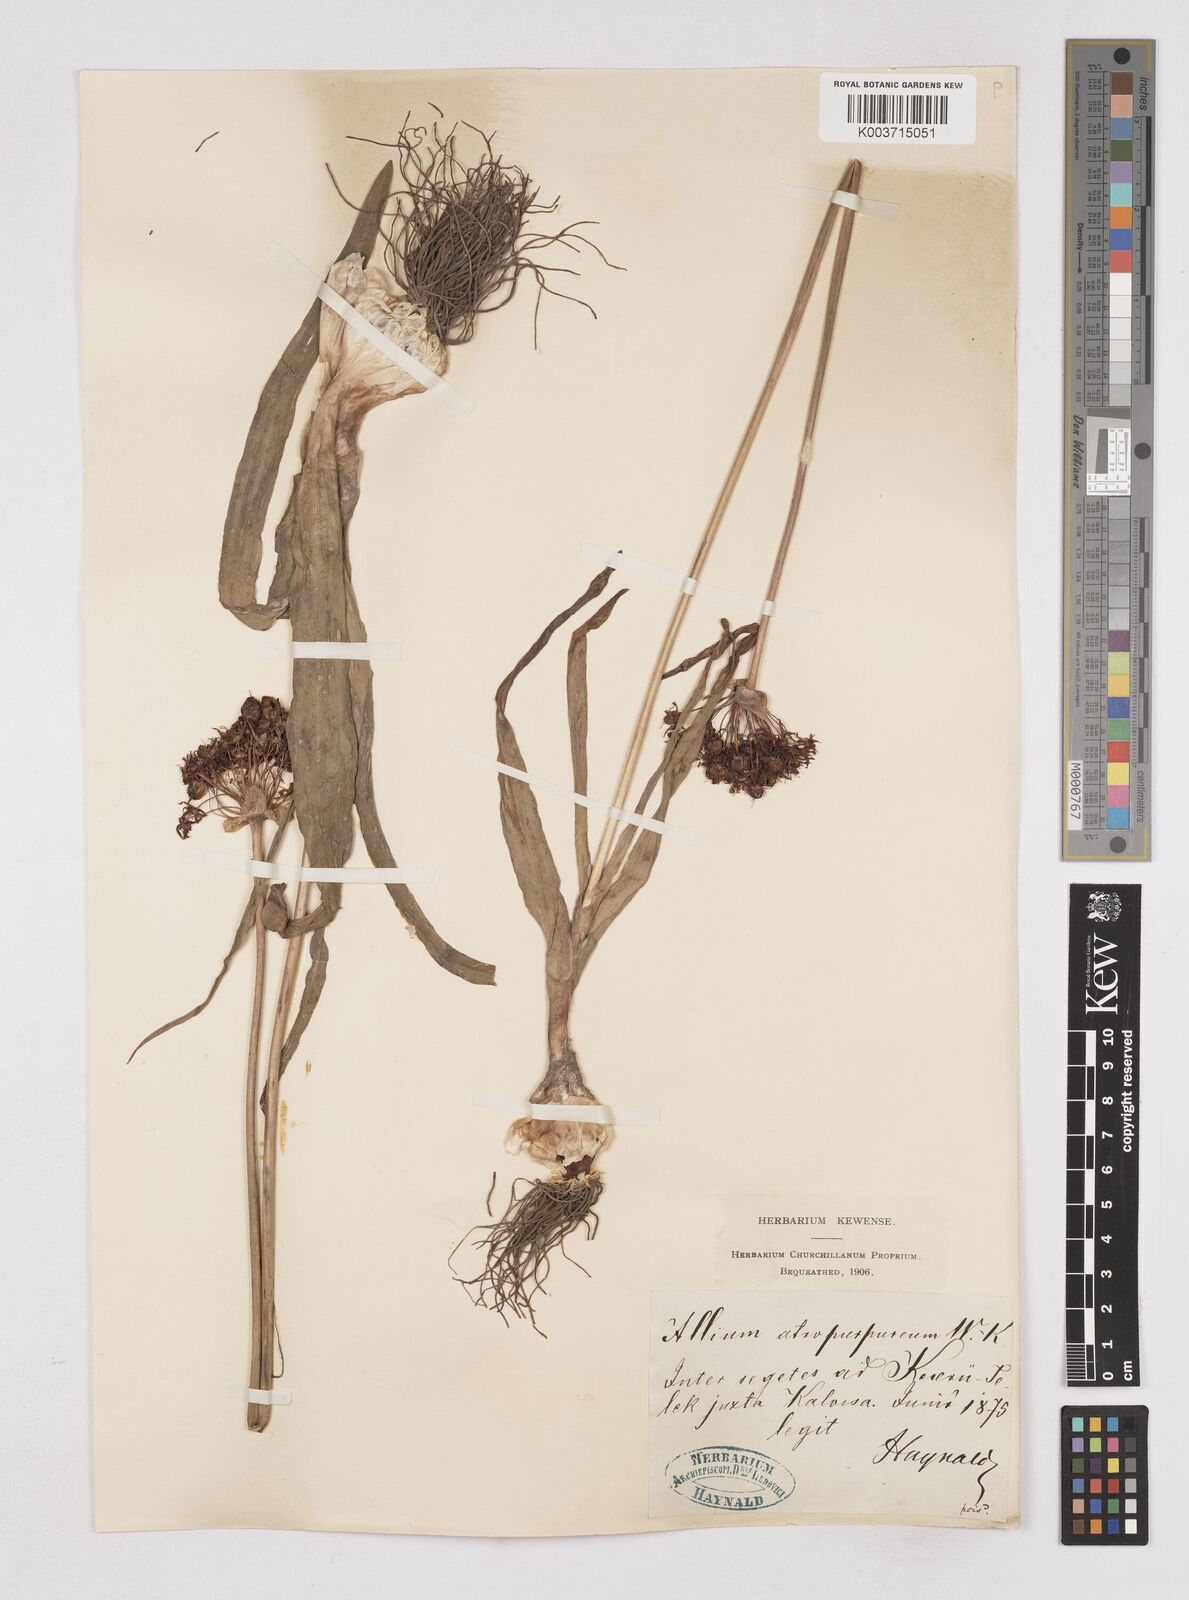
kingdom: Plantae
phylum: Tracheophyta
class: Liliopsida
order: Asparagales
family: Amaryllidaceae
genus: Allium
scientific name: Allium atropurpureum
